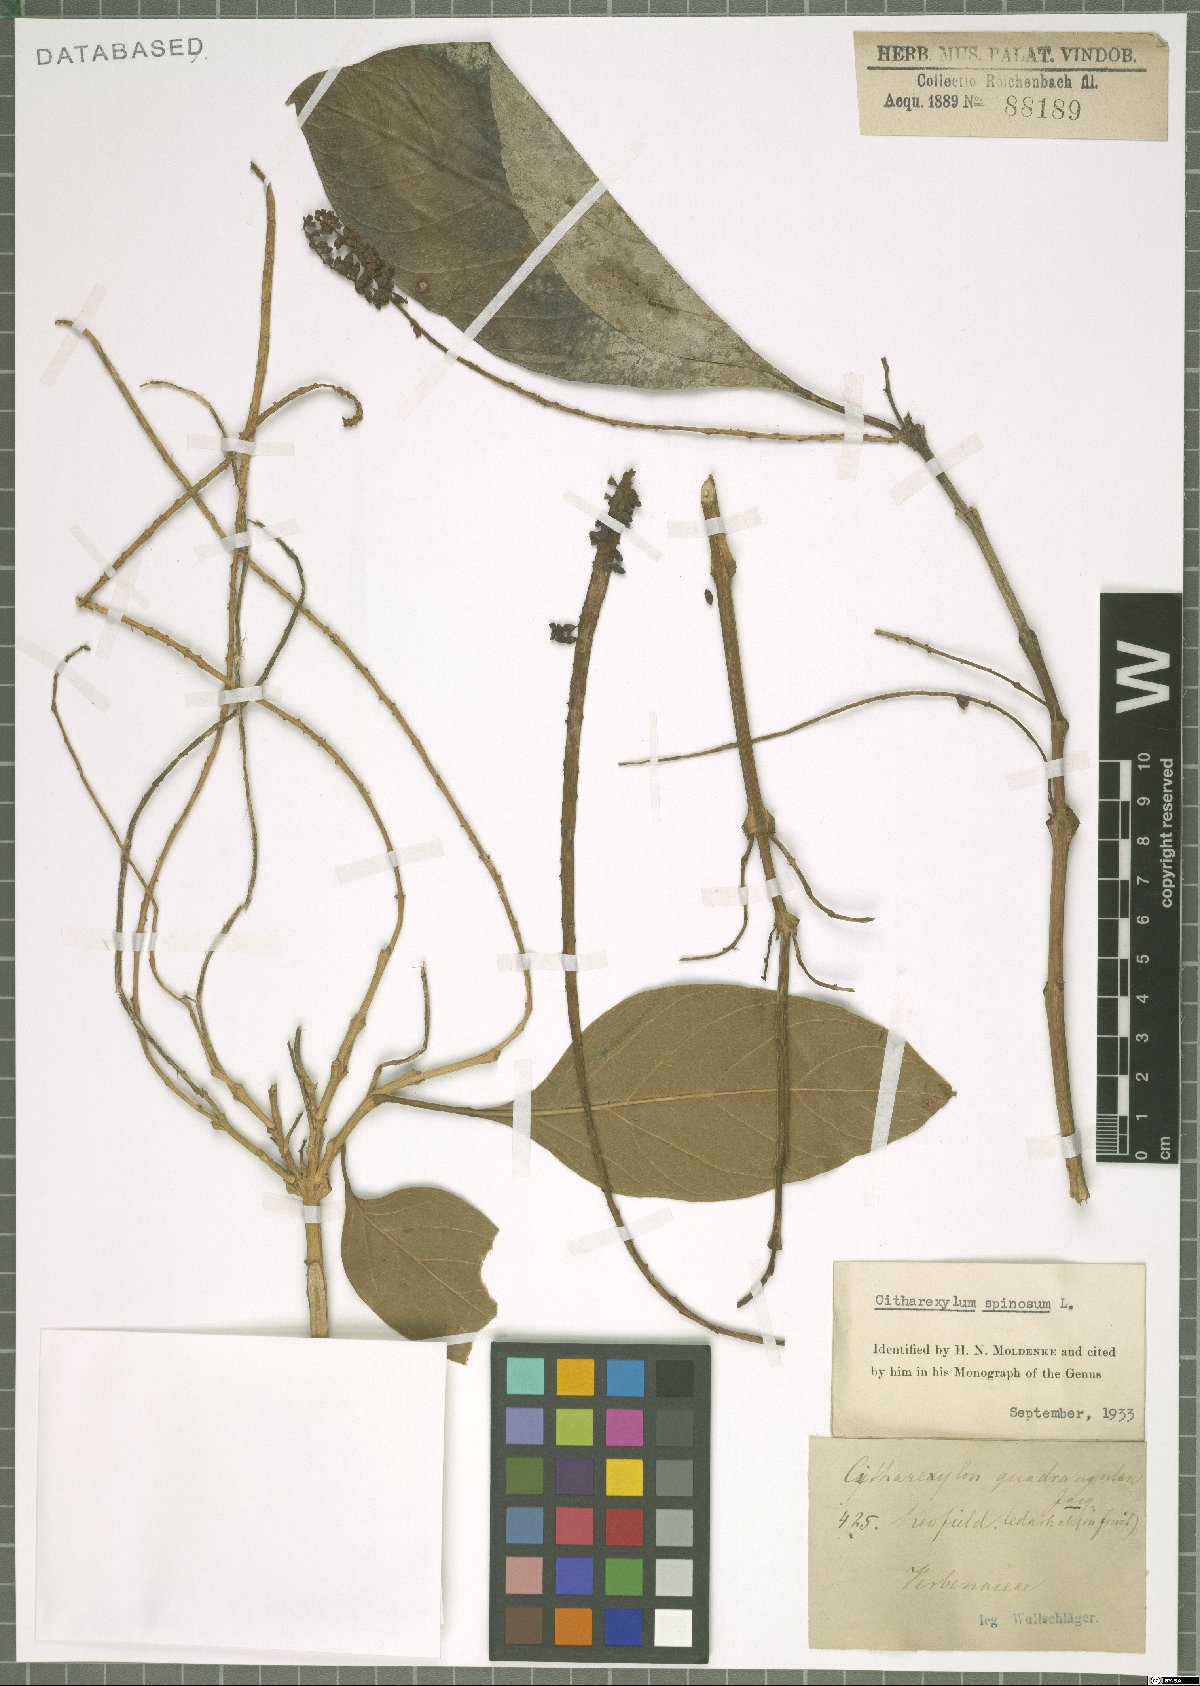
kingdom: Plantae
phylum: Tracheophyta
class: Magnoliopsida
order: Lamiales
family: Verbenaceae
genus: Citharexylum
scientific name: Citharexylum spinosum
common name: Fiddlewood
